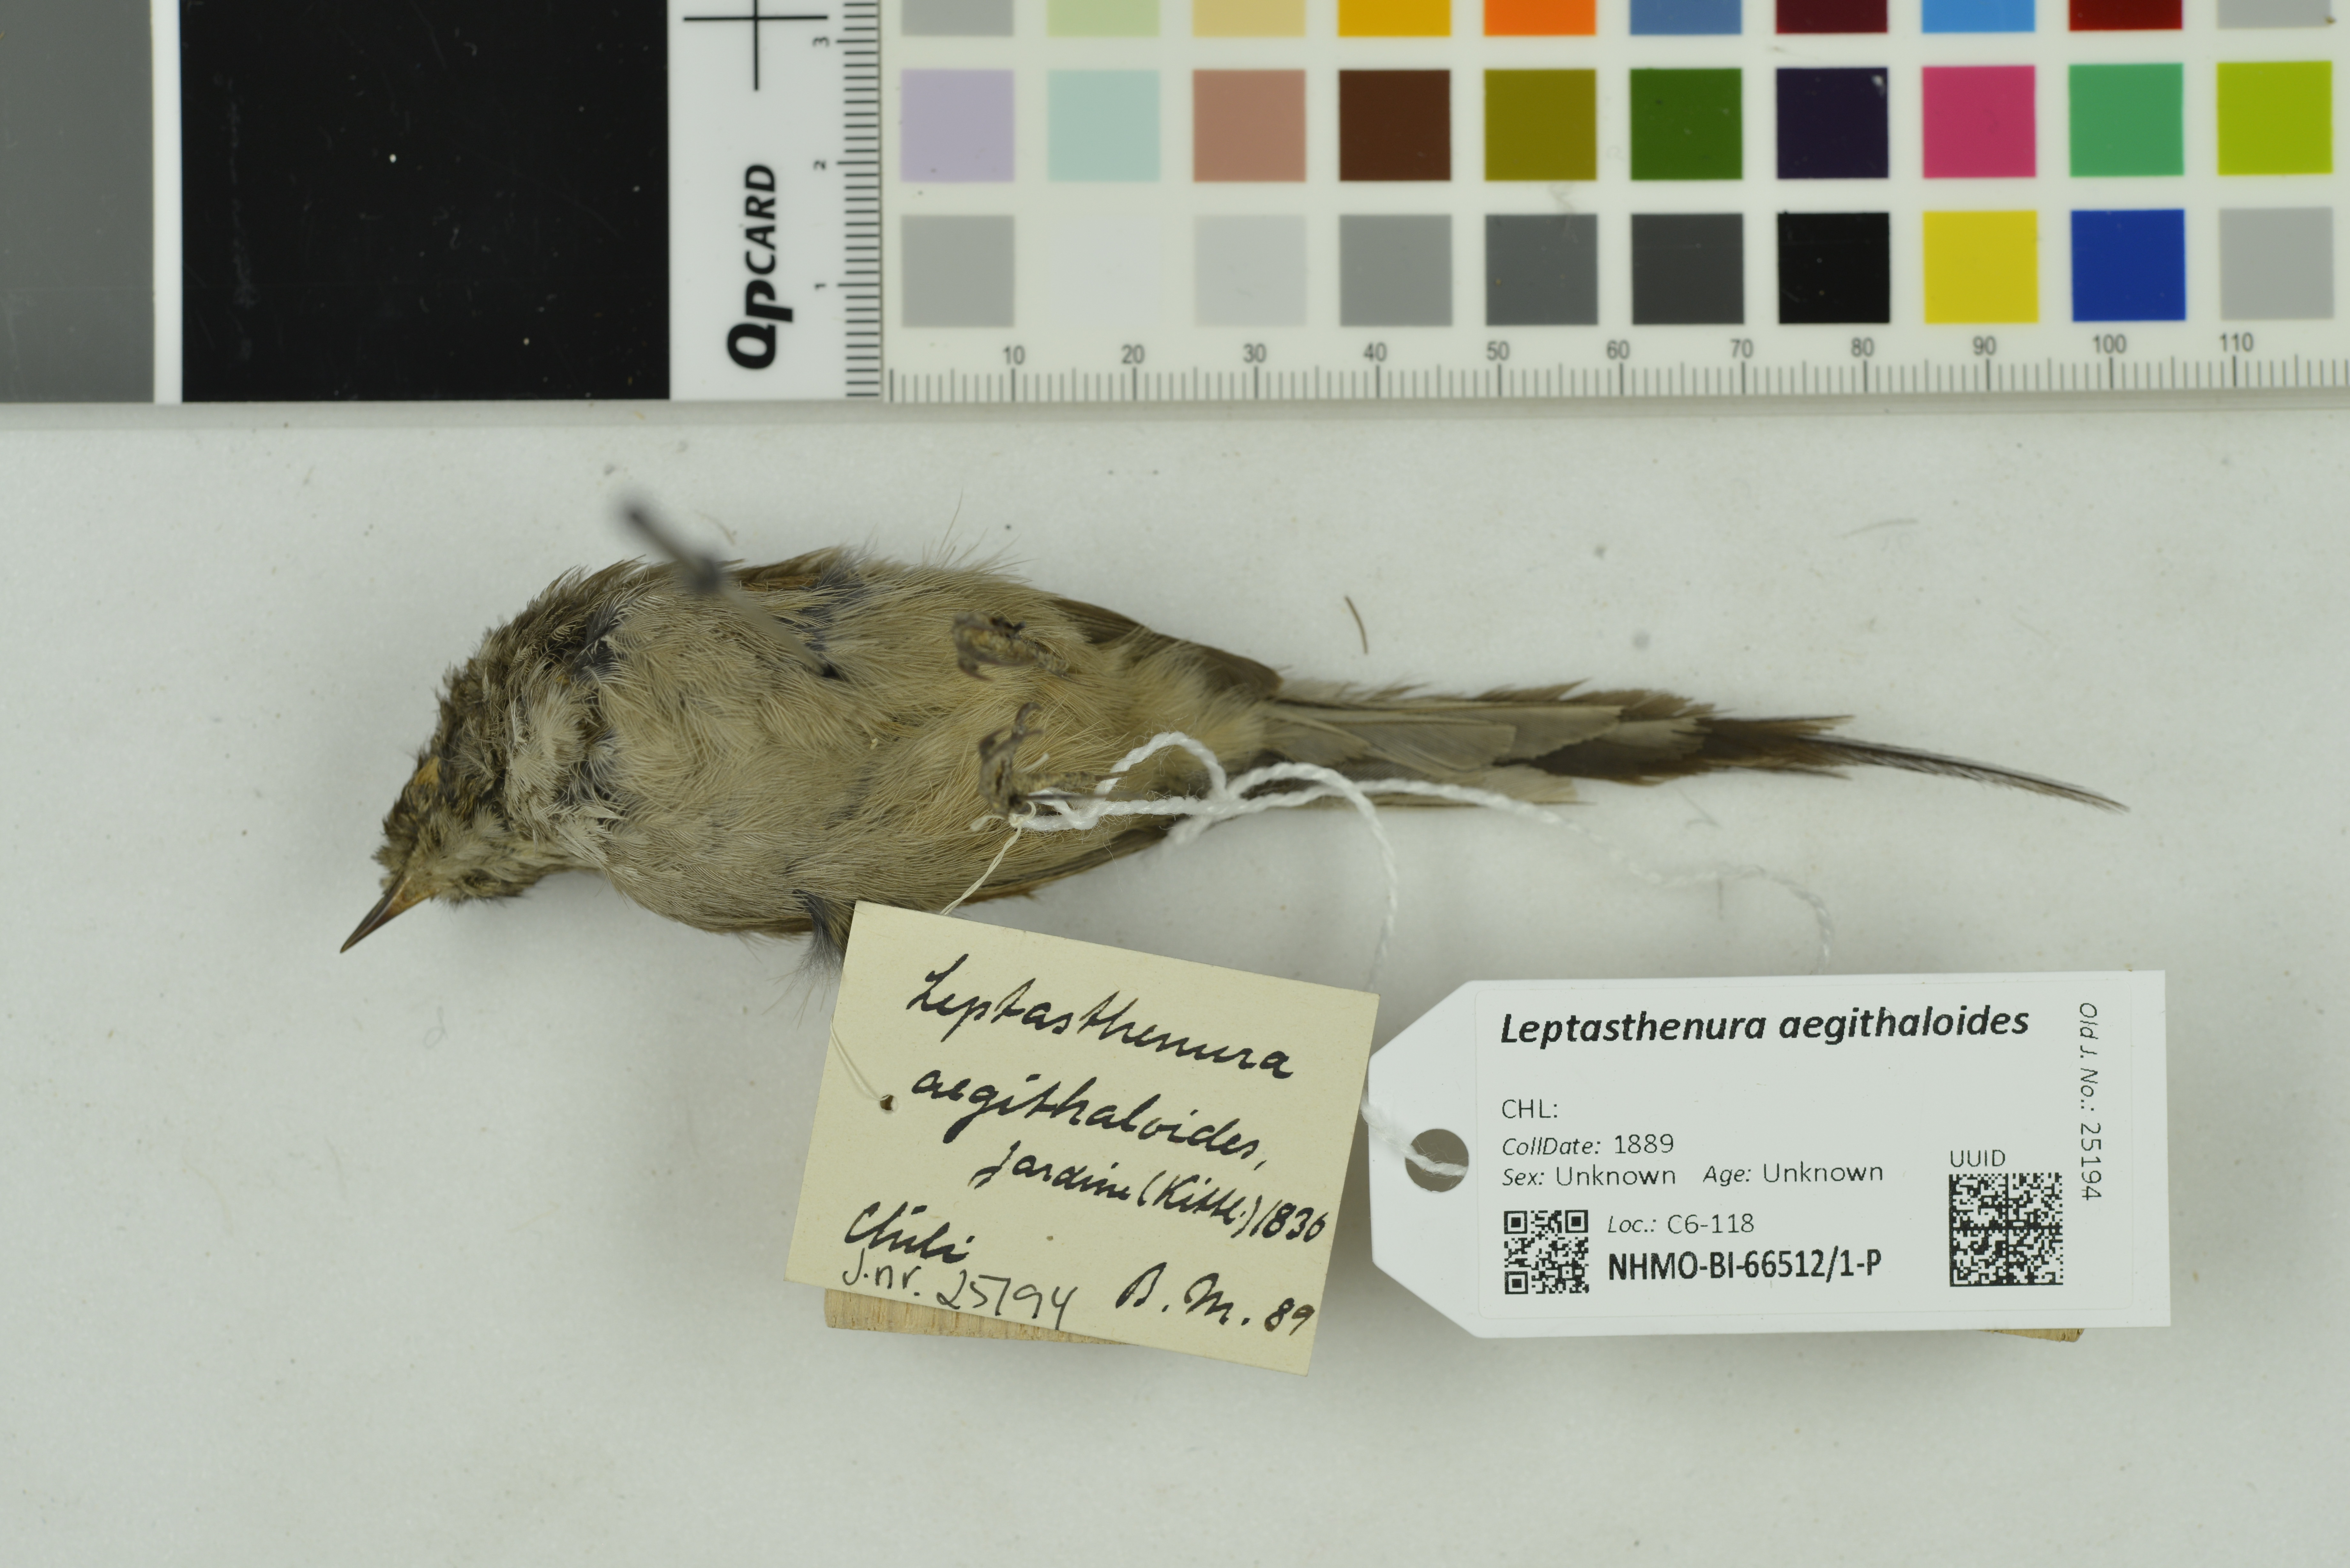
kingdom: Animalia
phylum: Chordata
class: Aves
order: Passeriformes
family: Furnariidae
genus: Leptasthenura
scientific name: Leptasthenura aegithaloides
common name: Plain-mantled tit-spinetail
